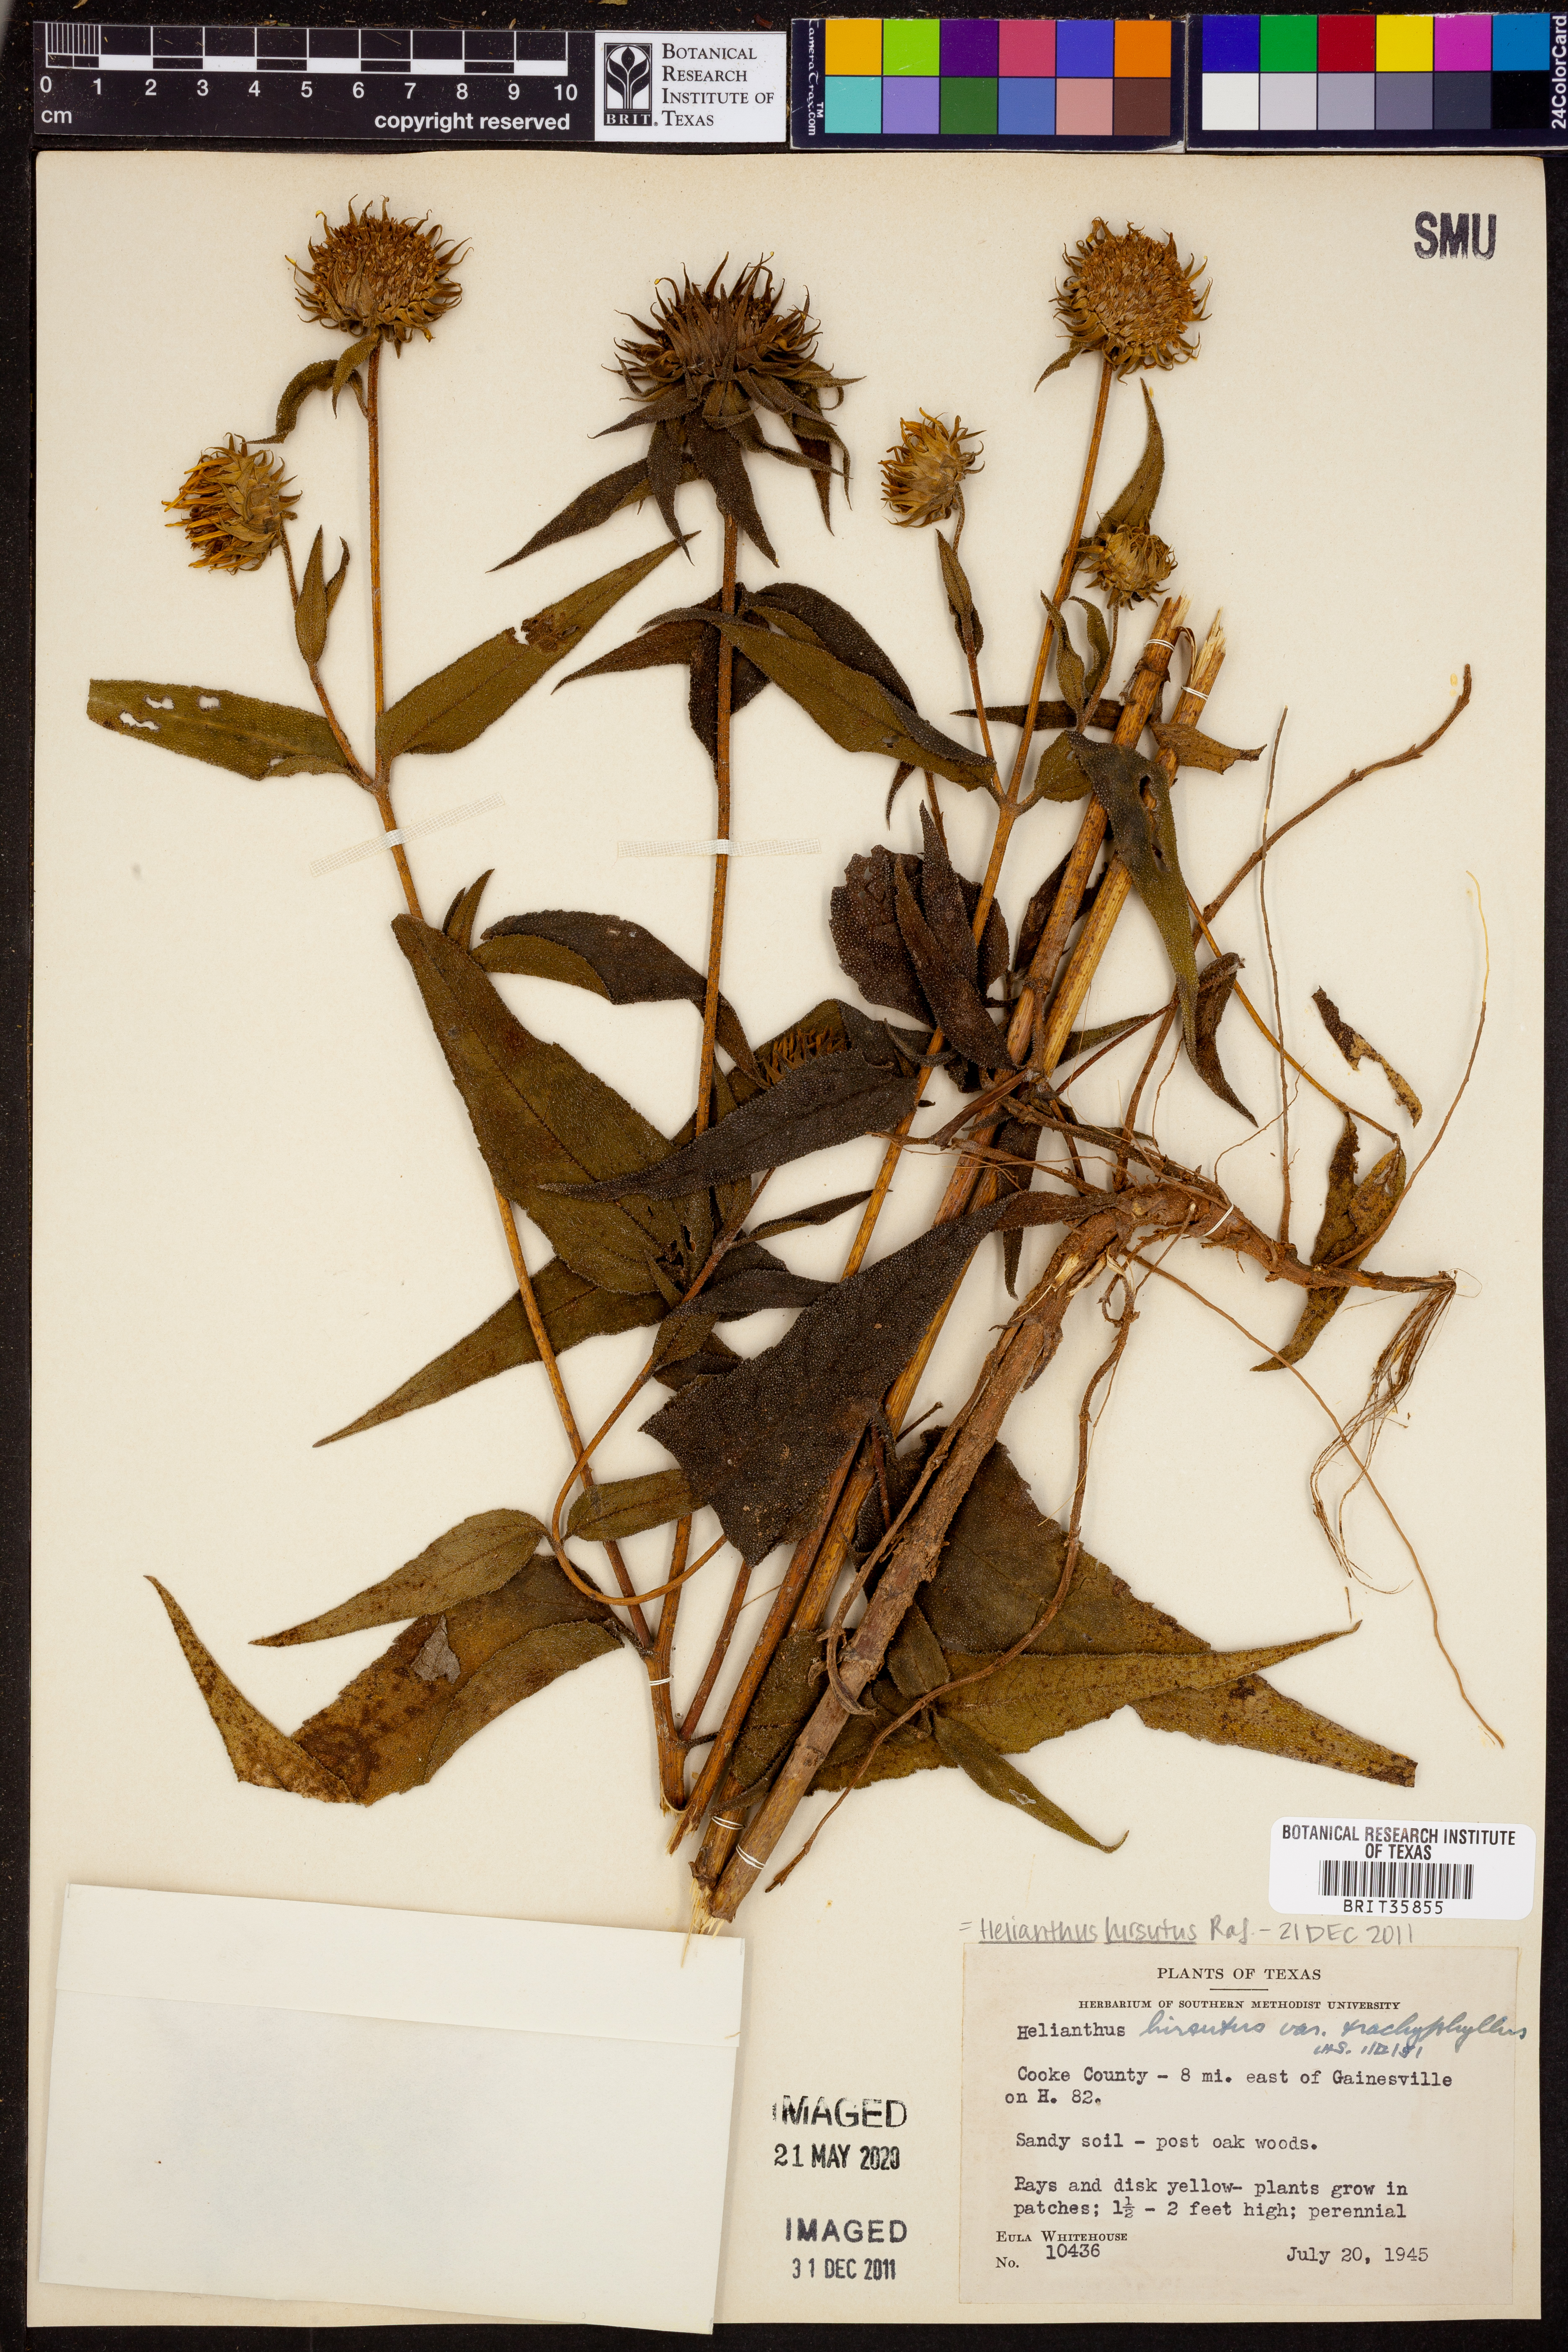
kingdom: Plantae
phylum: Tracheophyta
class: Magnoliopsida
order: Asterales
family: Asteraceae
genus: Helianthus
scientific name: Helianthus hirsutus
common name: Hairy sunflower
